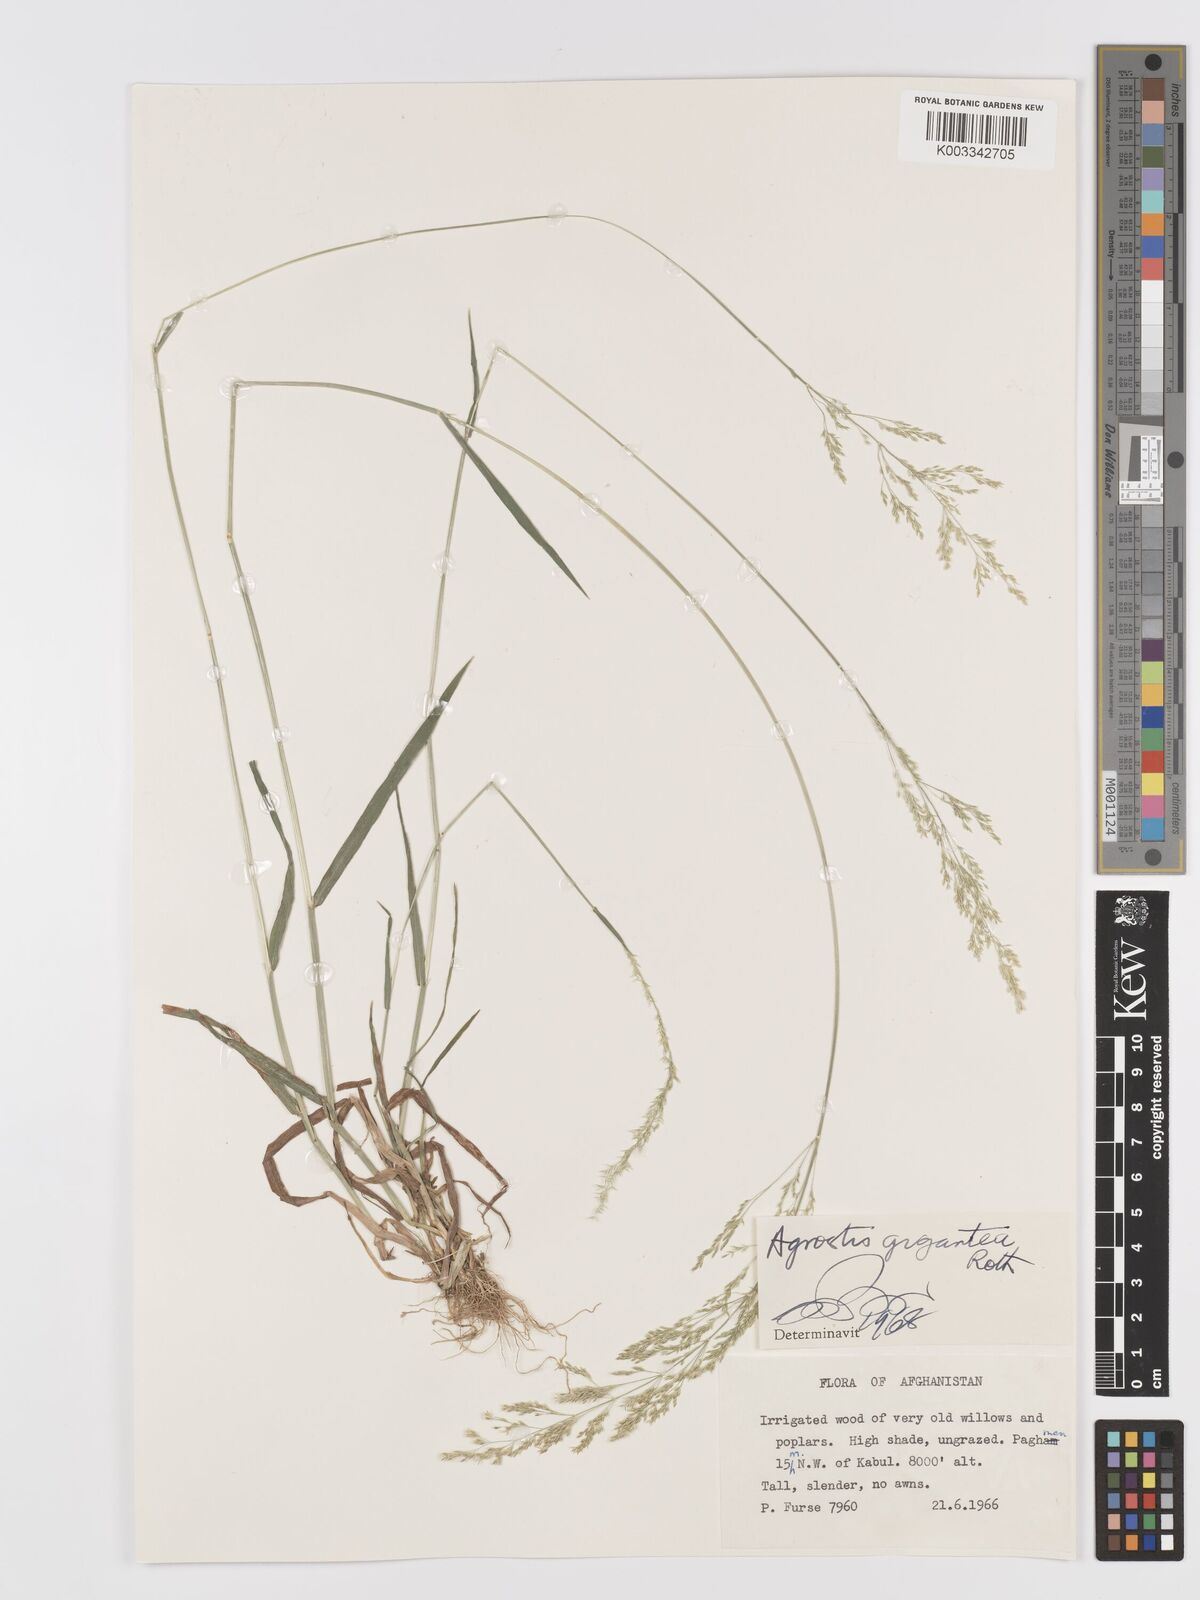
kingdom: Plantae
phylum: Tracheophyta
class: Liliopsida
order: Poales
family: Poaceae
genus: Agrostis
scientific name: Agrostis gigantea
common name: Black bent
